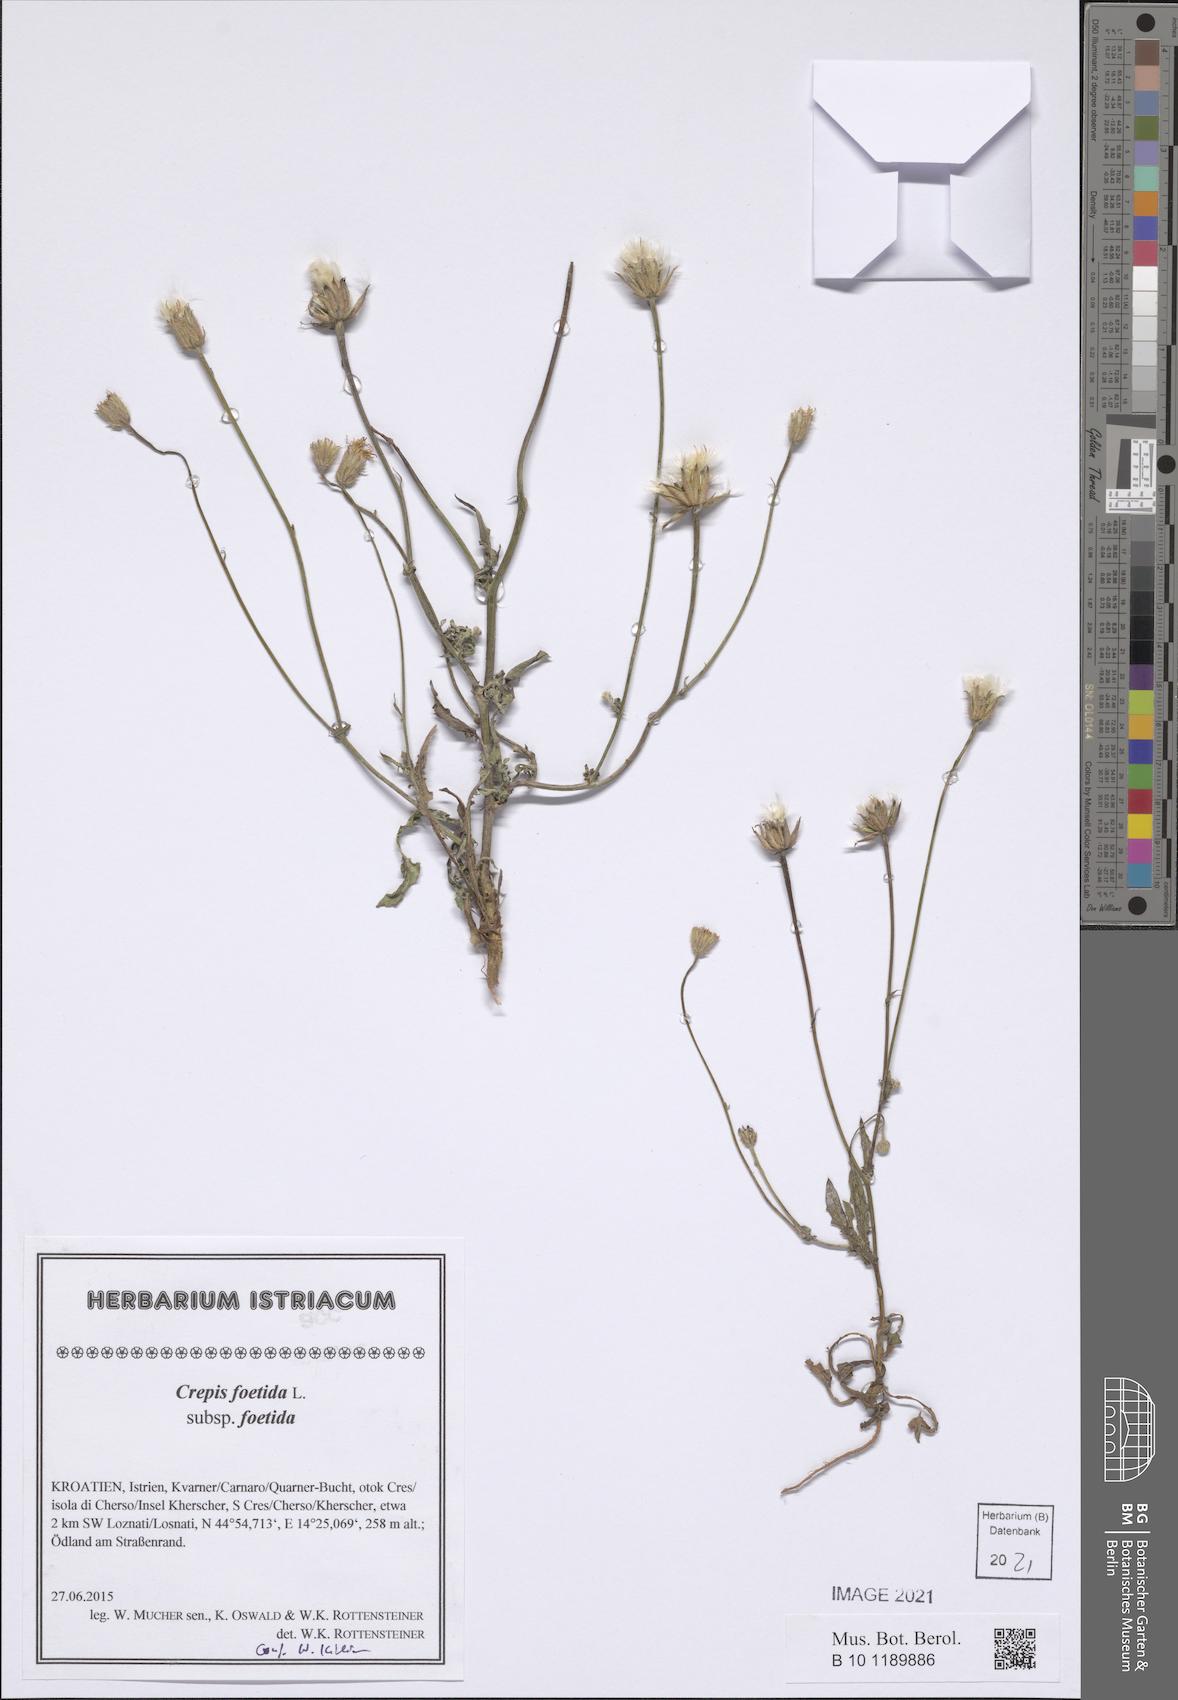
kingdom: Plantae
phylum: Tracheophyta
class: Magnoliopsida
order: Asterales
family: Asteraceae
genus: Crepis
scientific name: Crepis foetida
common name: Stinking hawk's-beard
